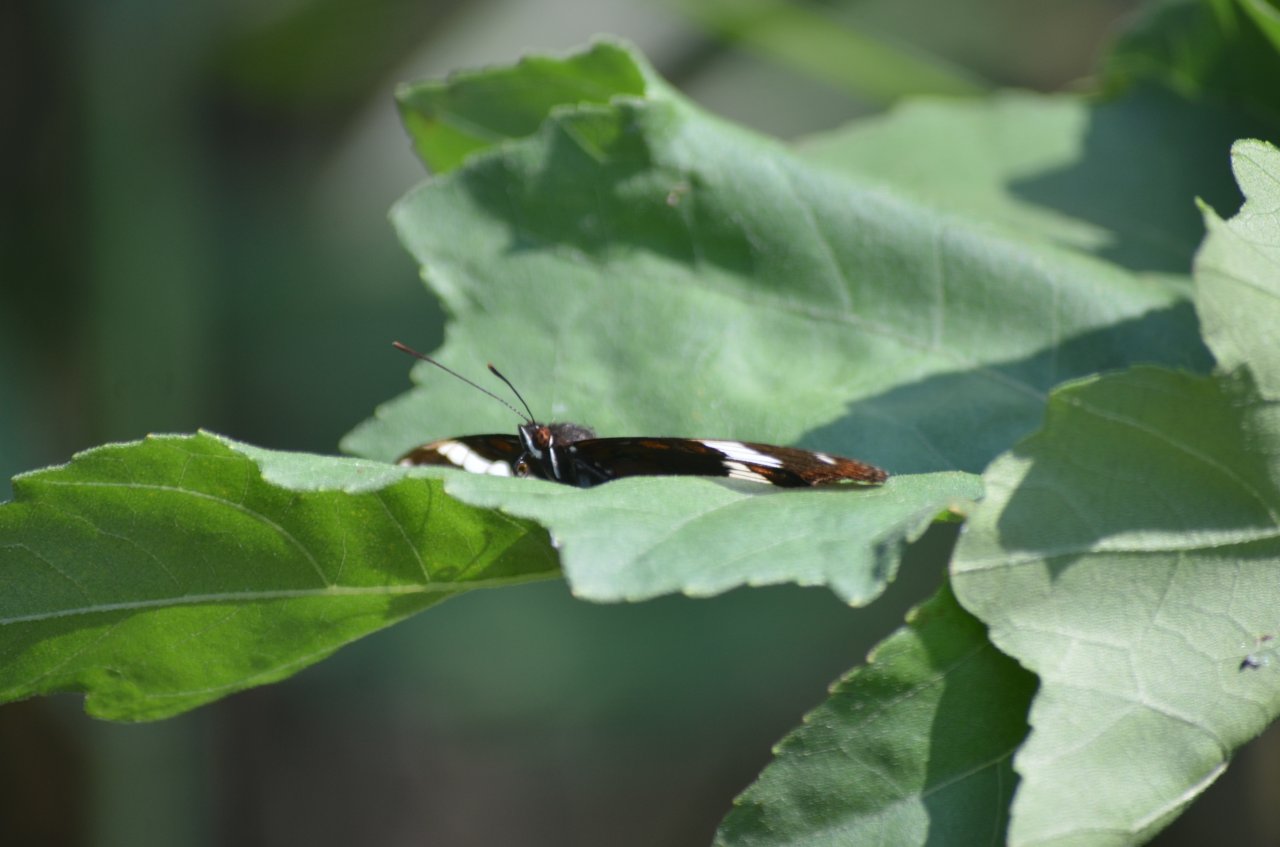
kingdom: Animalia
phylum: Arthropoda
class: Insecta
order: Lepidoptera
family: Nymphalidae
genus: Limenitis
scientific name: Limenitis arthemis
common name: Red-spotted Admiral
